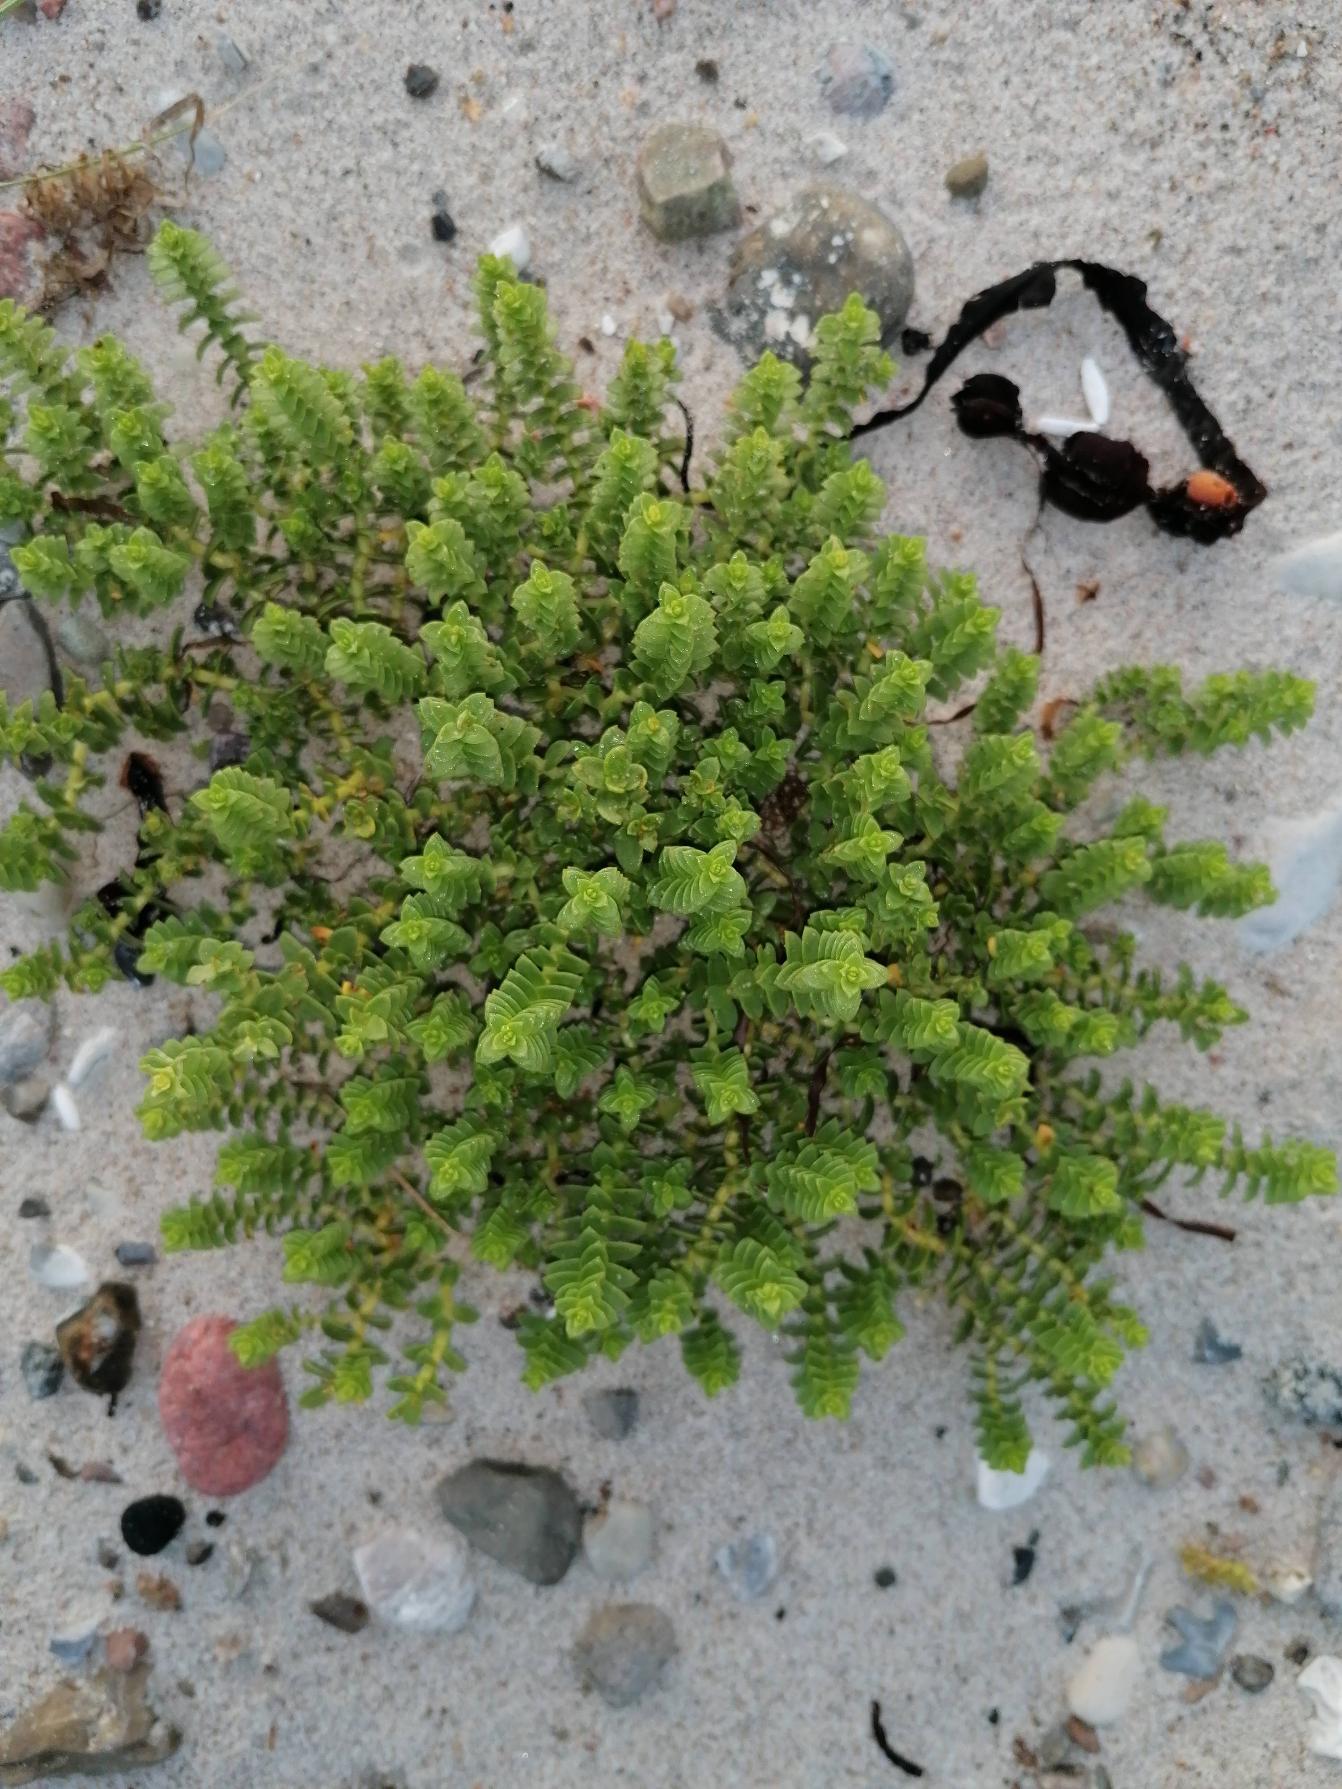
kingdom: Plantae
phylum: Tracheophyta
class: Magnoliopsida
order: Caryophyllales
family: Caryophyllaceae
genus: Honckenya
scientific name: Honckenya peploides
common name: Strandarve
